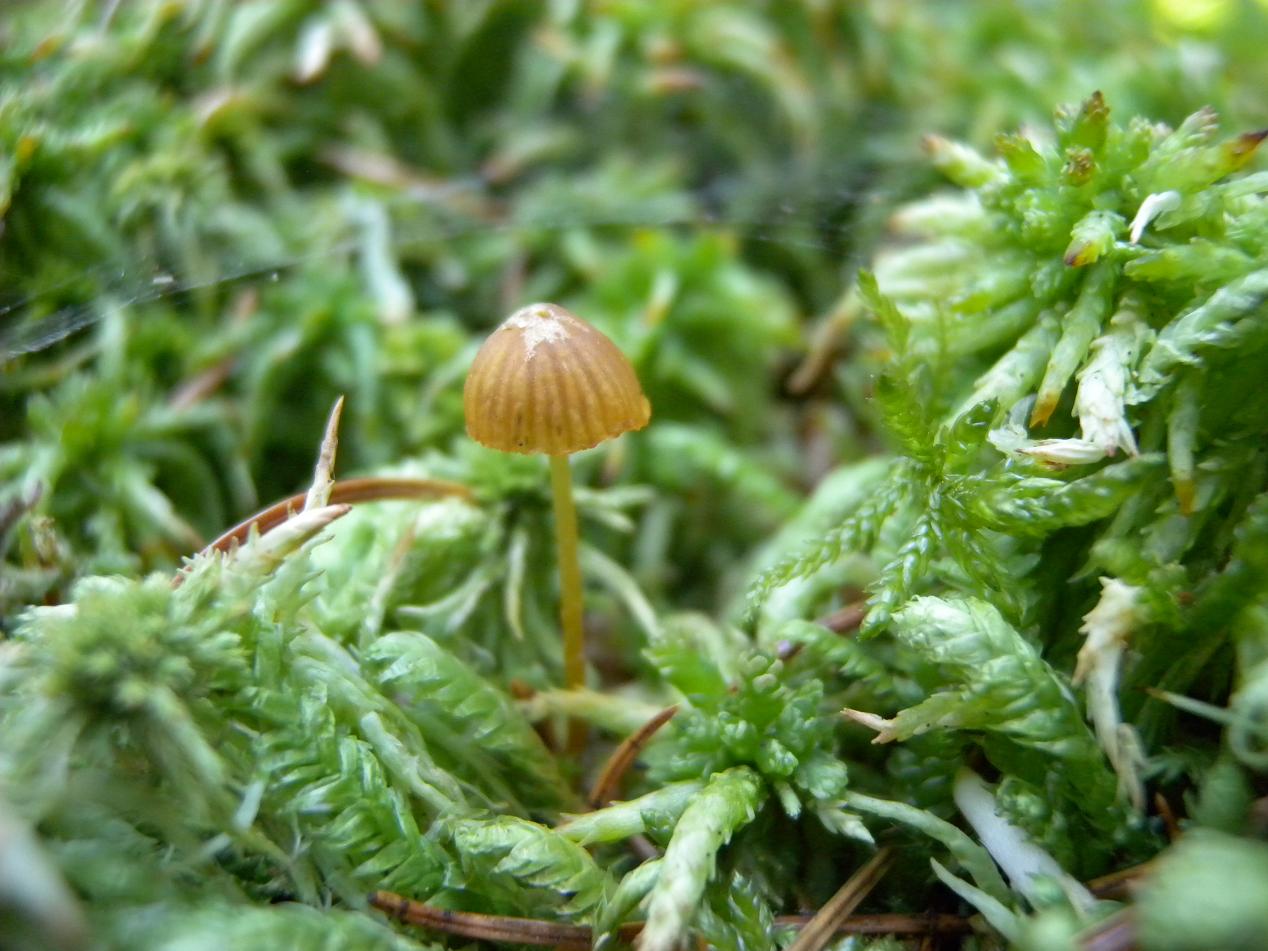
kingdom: Fungi
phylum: Basidiomycota
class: Agaricomycetes
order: Agaricales
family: Hymenogastraceae
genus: Galerina
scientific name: Galerina hypnorum
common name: mos-hjelmhat
